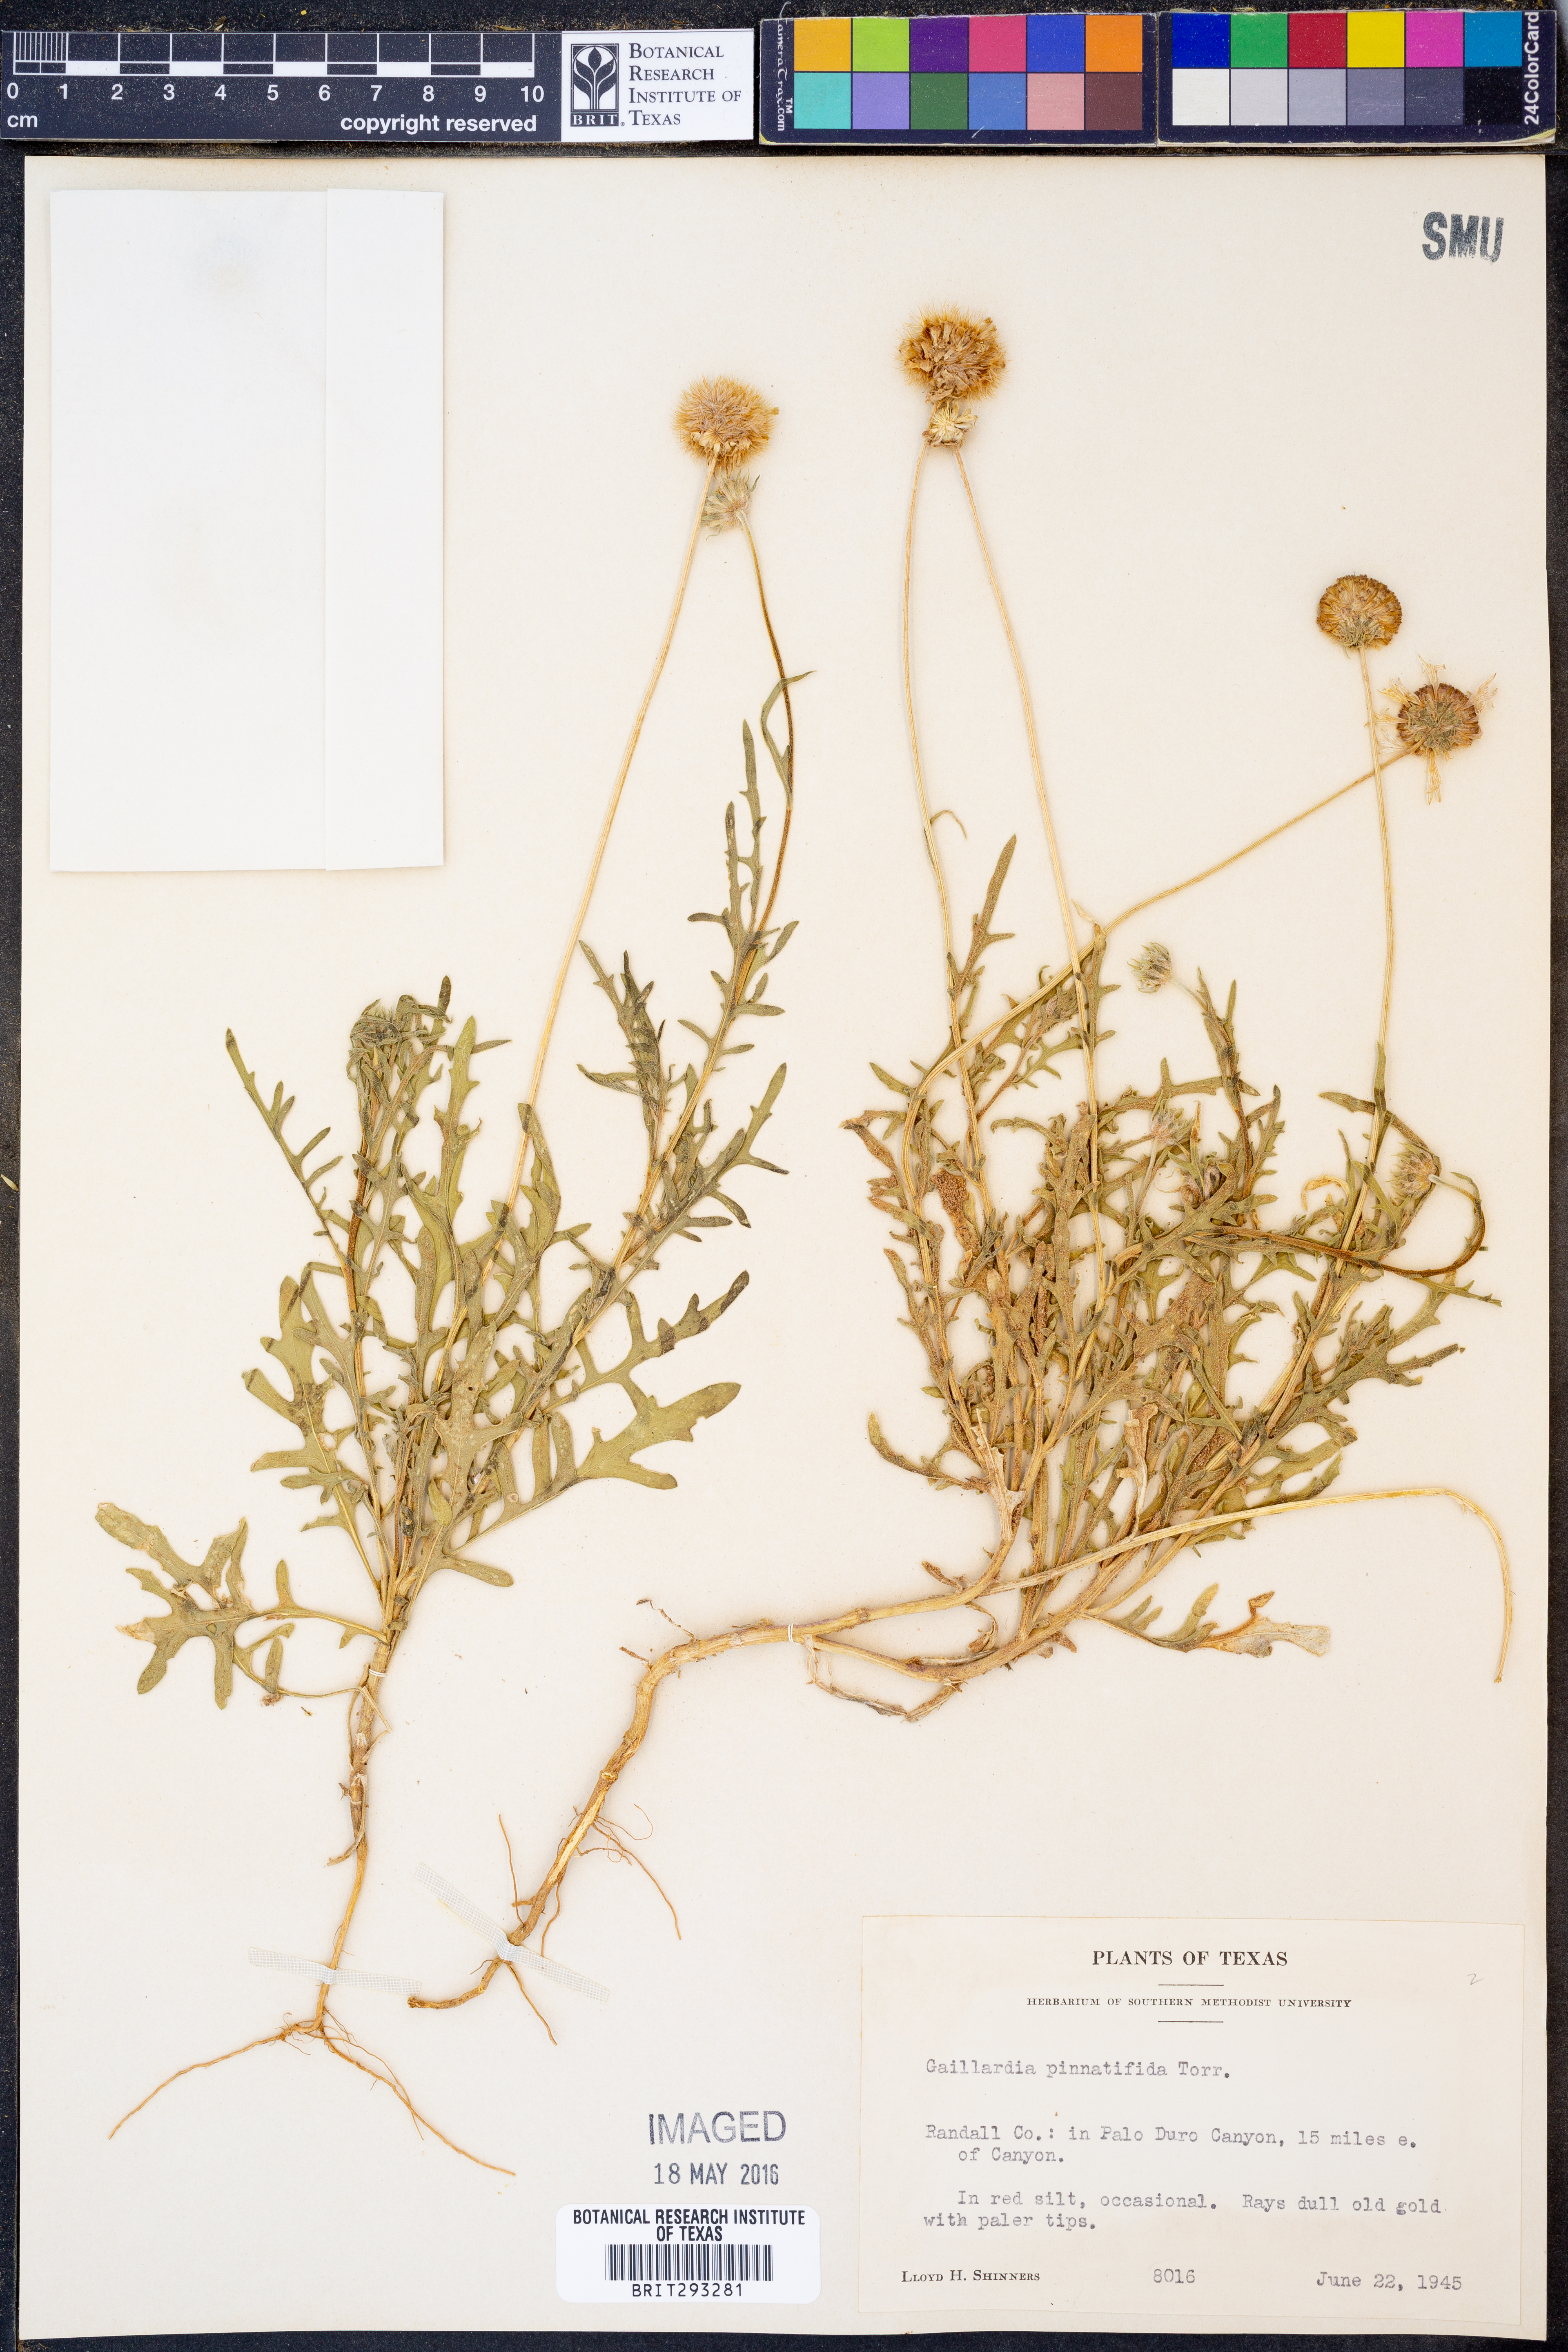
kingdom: Plantae
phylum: Tracheophyta
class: Magnoliopsida
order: Asterales
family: Asteraceae
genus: Gaillardia
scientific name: Gaillardia pinnatifida
